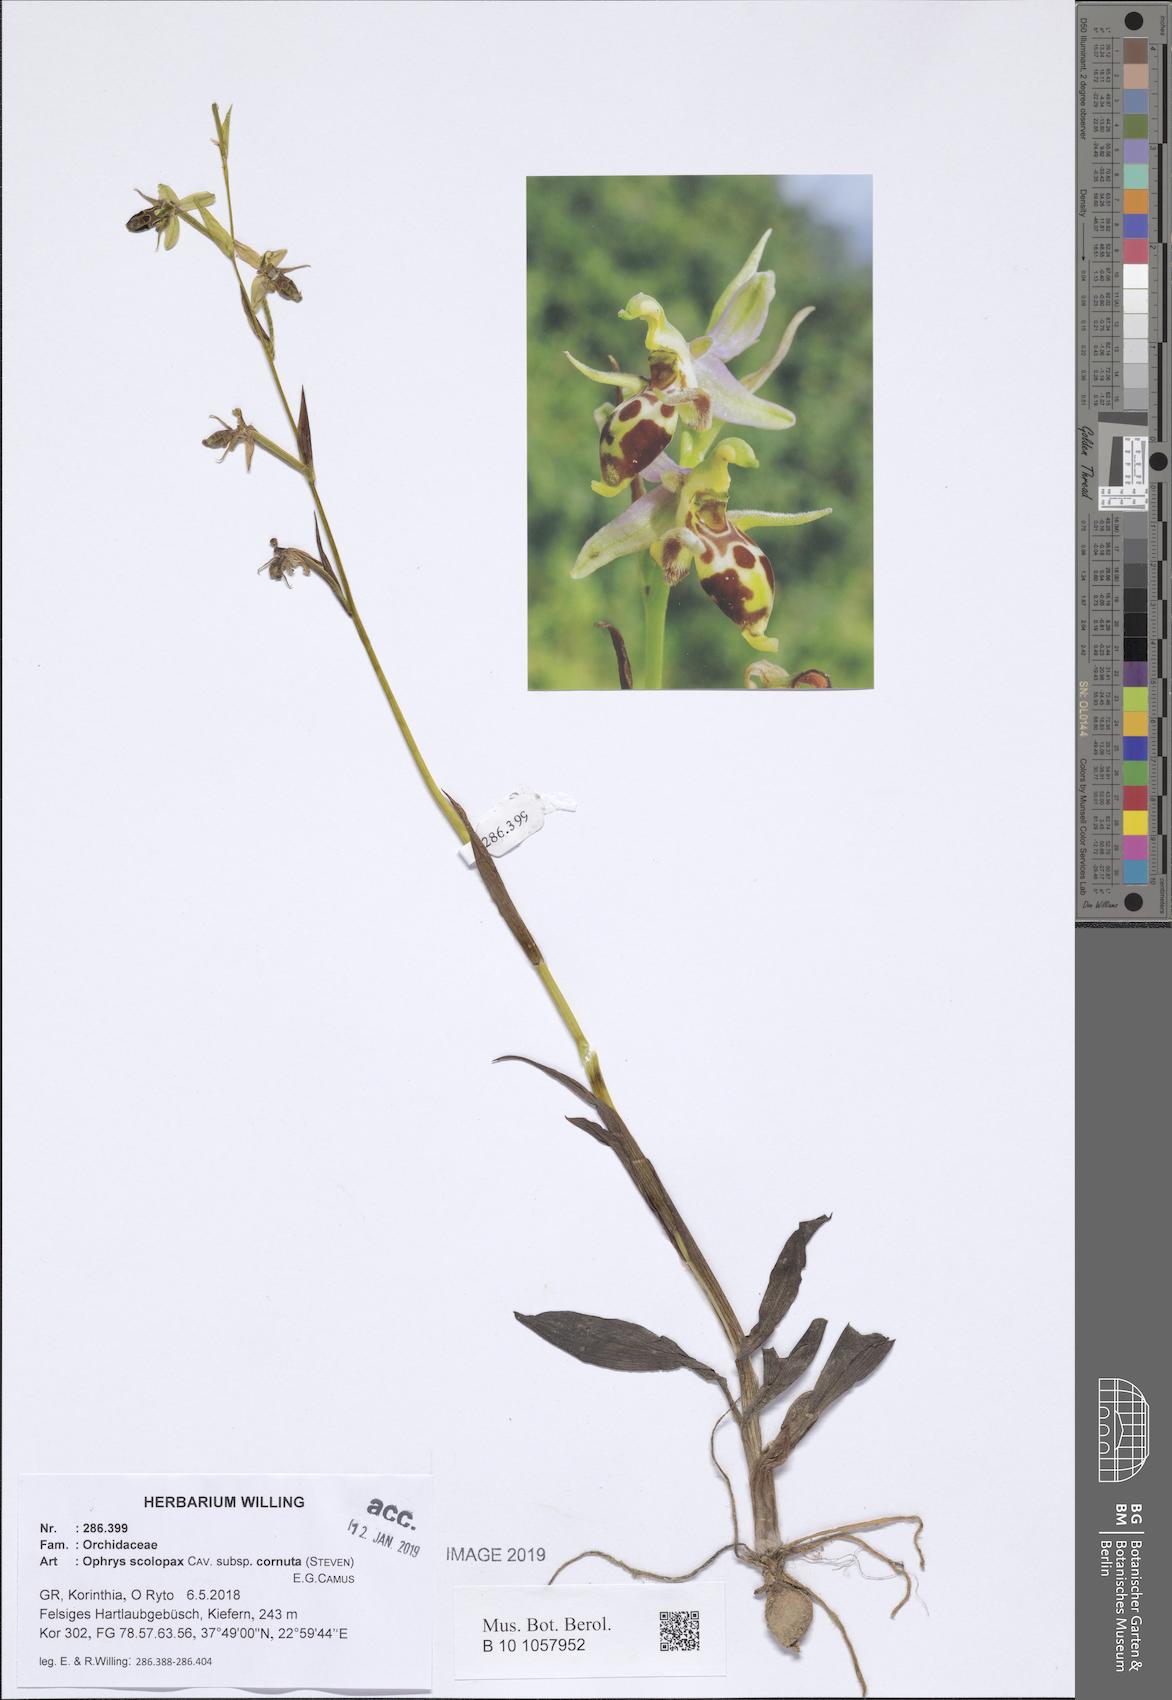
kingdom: Plantae
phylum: Tracheophyta
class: Liliopsida
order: Asparagales
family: Orchidaceae
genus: Ophrys
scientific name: Ophrys scolopax
